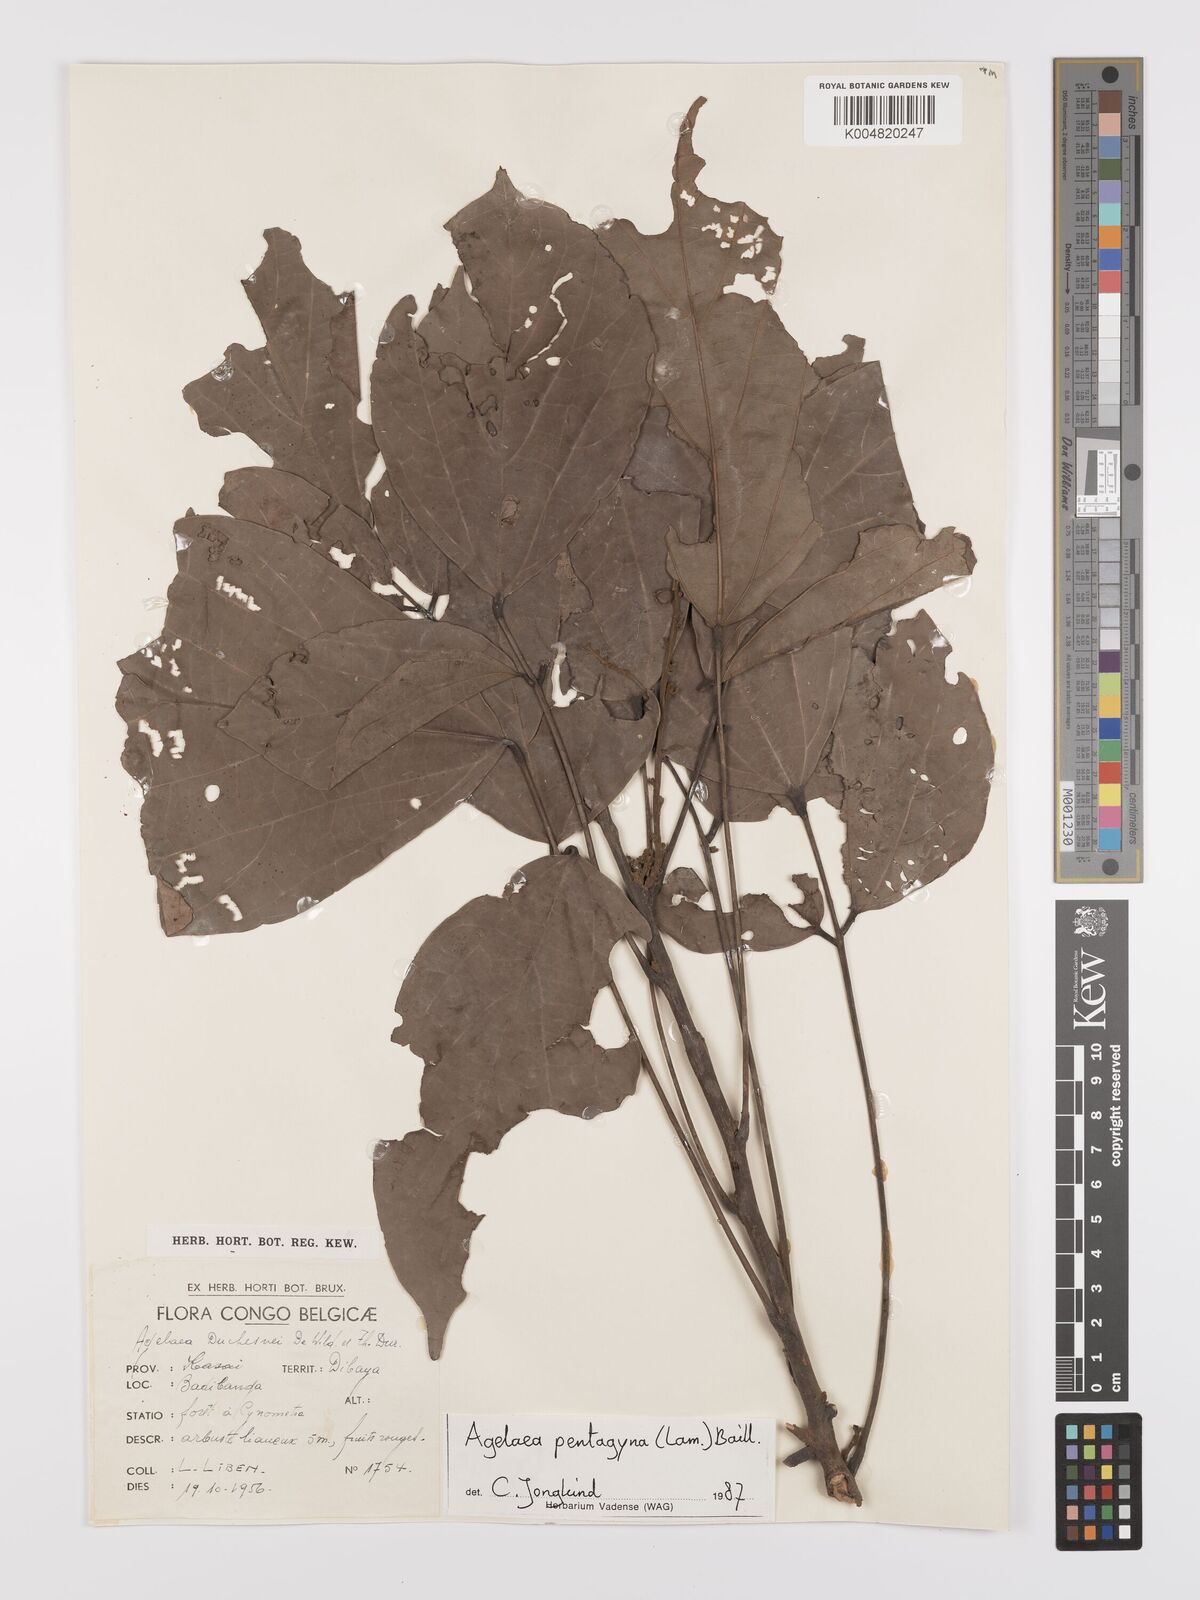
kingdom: Plantae
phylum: Tracheophyta
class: Magnoliopsida
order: Oxalidales
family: Connaraceae
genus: Agelaea
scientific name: Agelaea pentagyna
